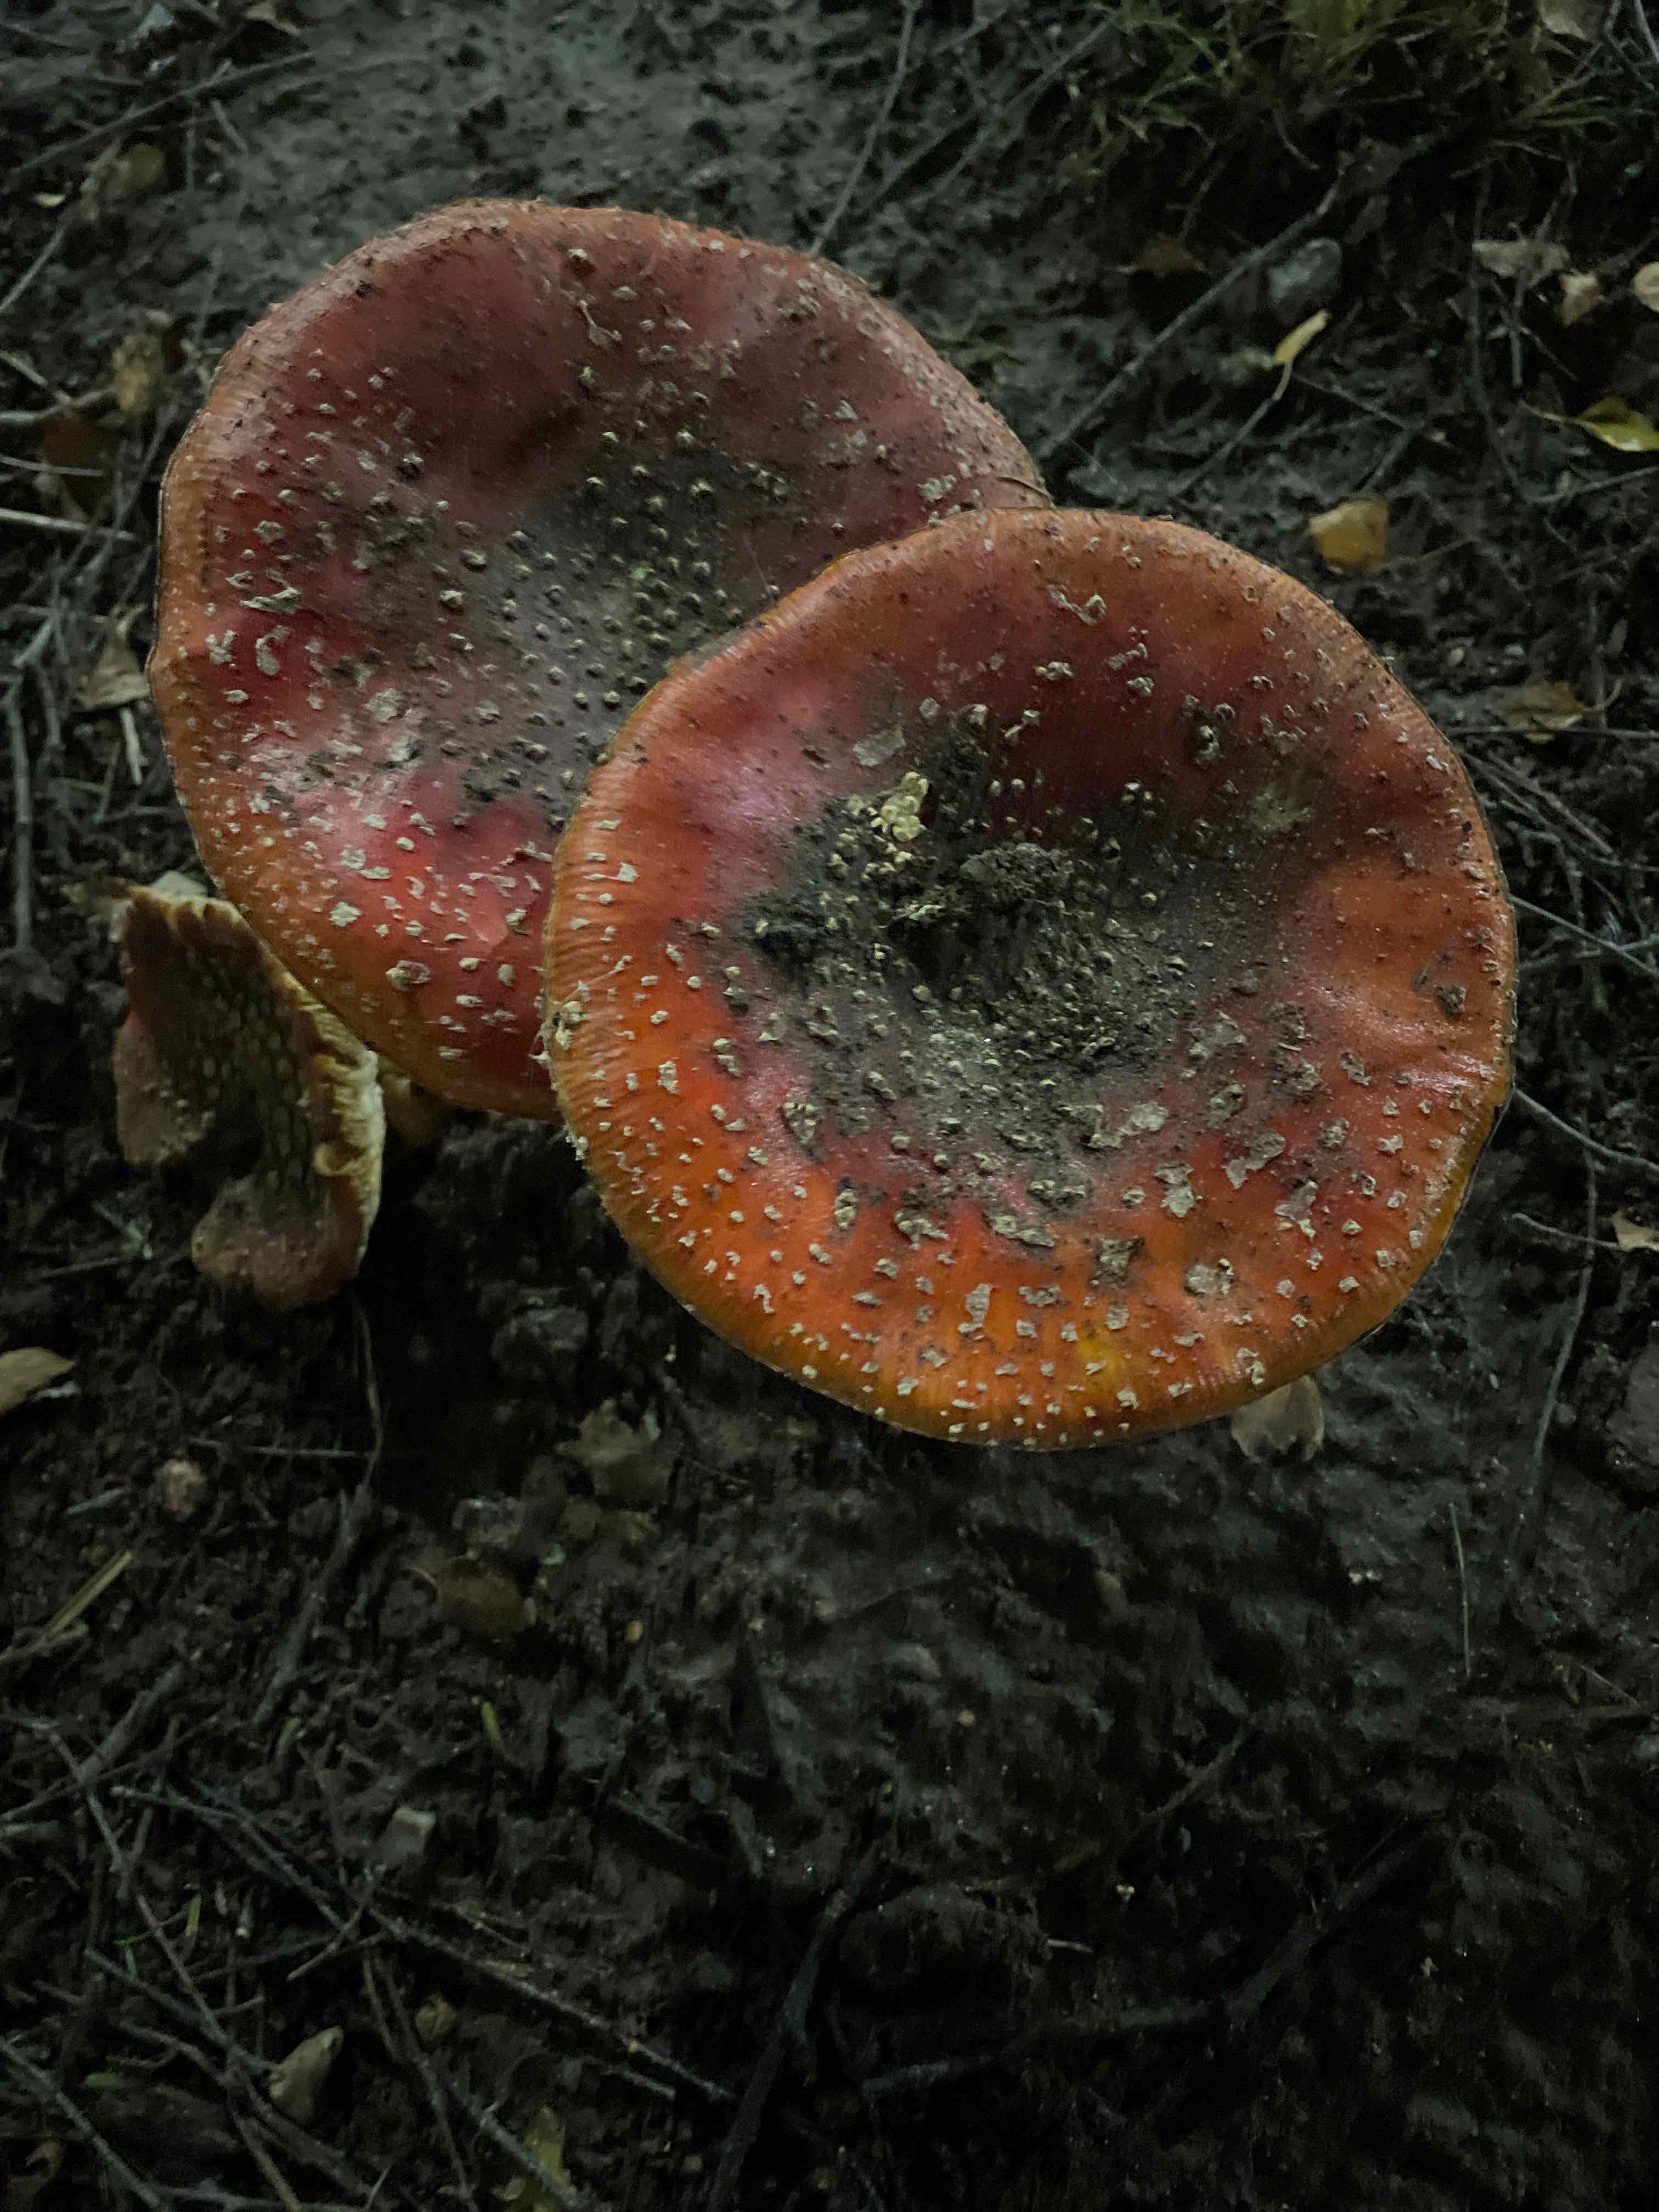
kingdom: Fungi
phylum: Basidiomycota
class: Agaricomycetes
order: Agaricales
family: Amanitaceae
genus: Amanita
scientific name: Amanita muscaria
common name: rød fluesvamp
